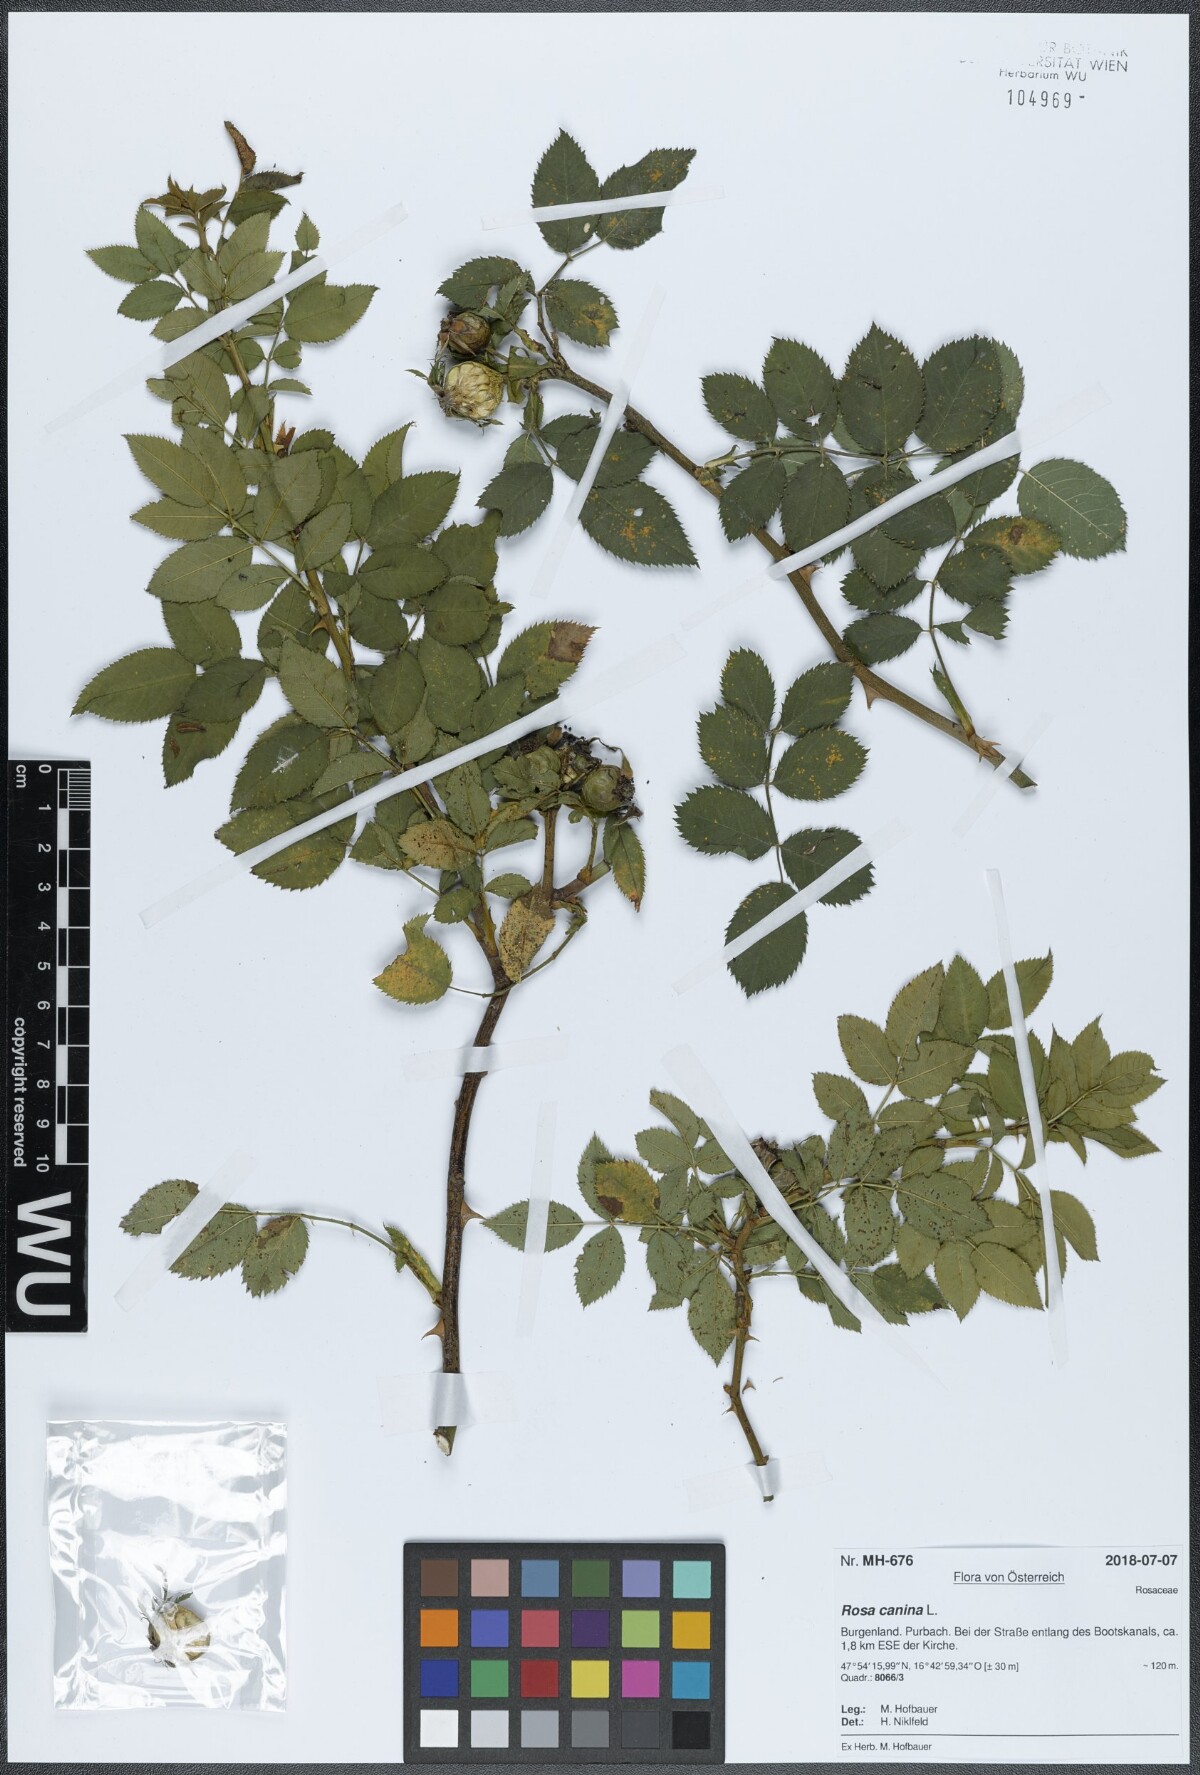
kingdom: Plantae
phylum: Tracheophyta
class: Magnoliopsida
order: Rosales
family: Rosaceae
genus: Rosa
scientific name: Rosa canina
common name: Dog rose
